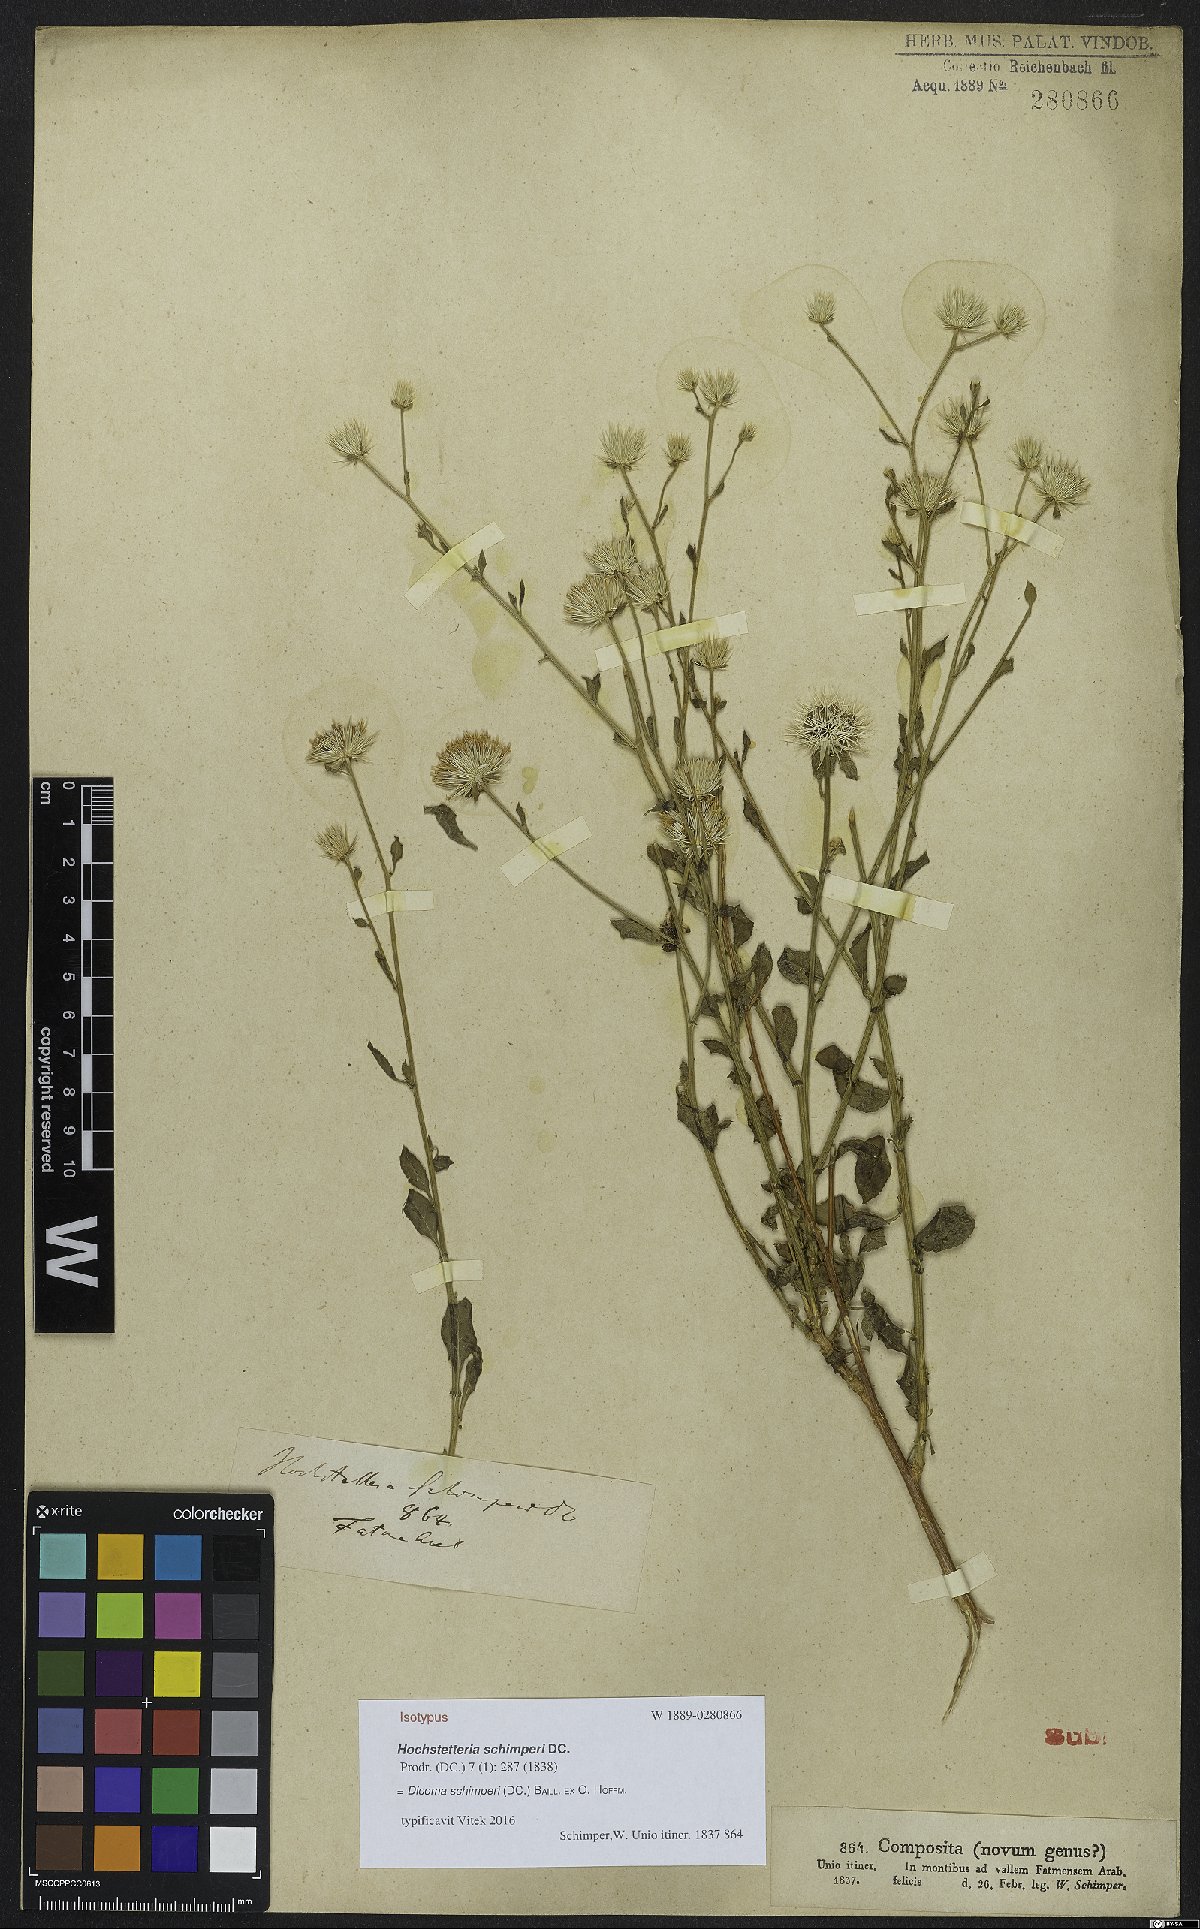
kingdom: Plantae
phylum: Tracheophyta
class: Magnoliopsida
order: Asterales
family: Asteraceae
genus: Dicoma
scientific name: Dicoma schimperi
